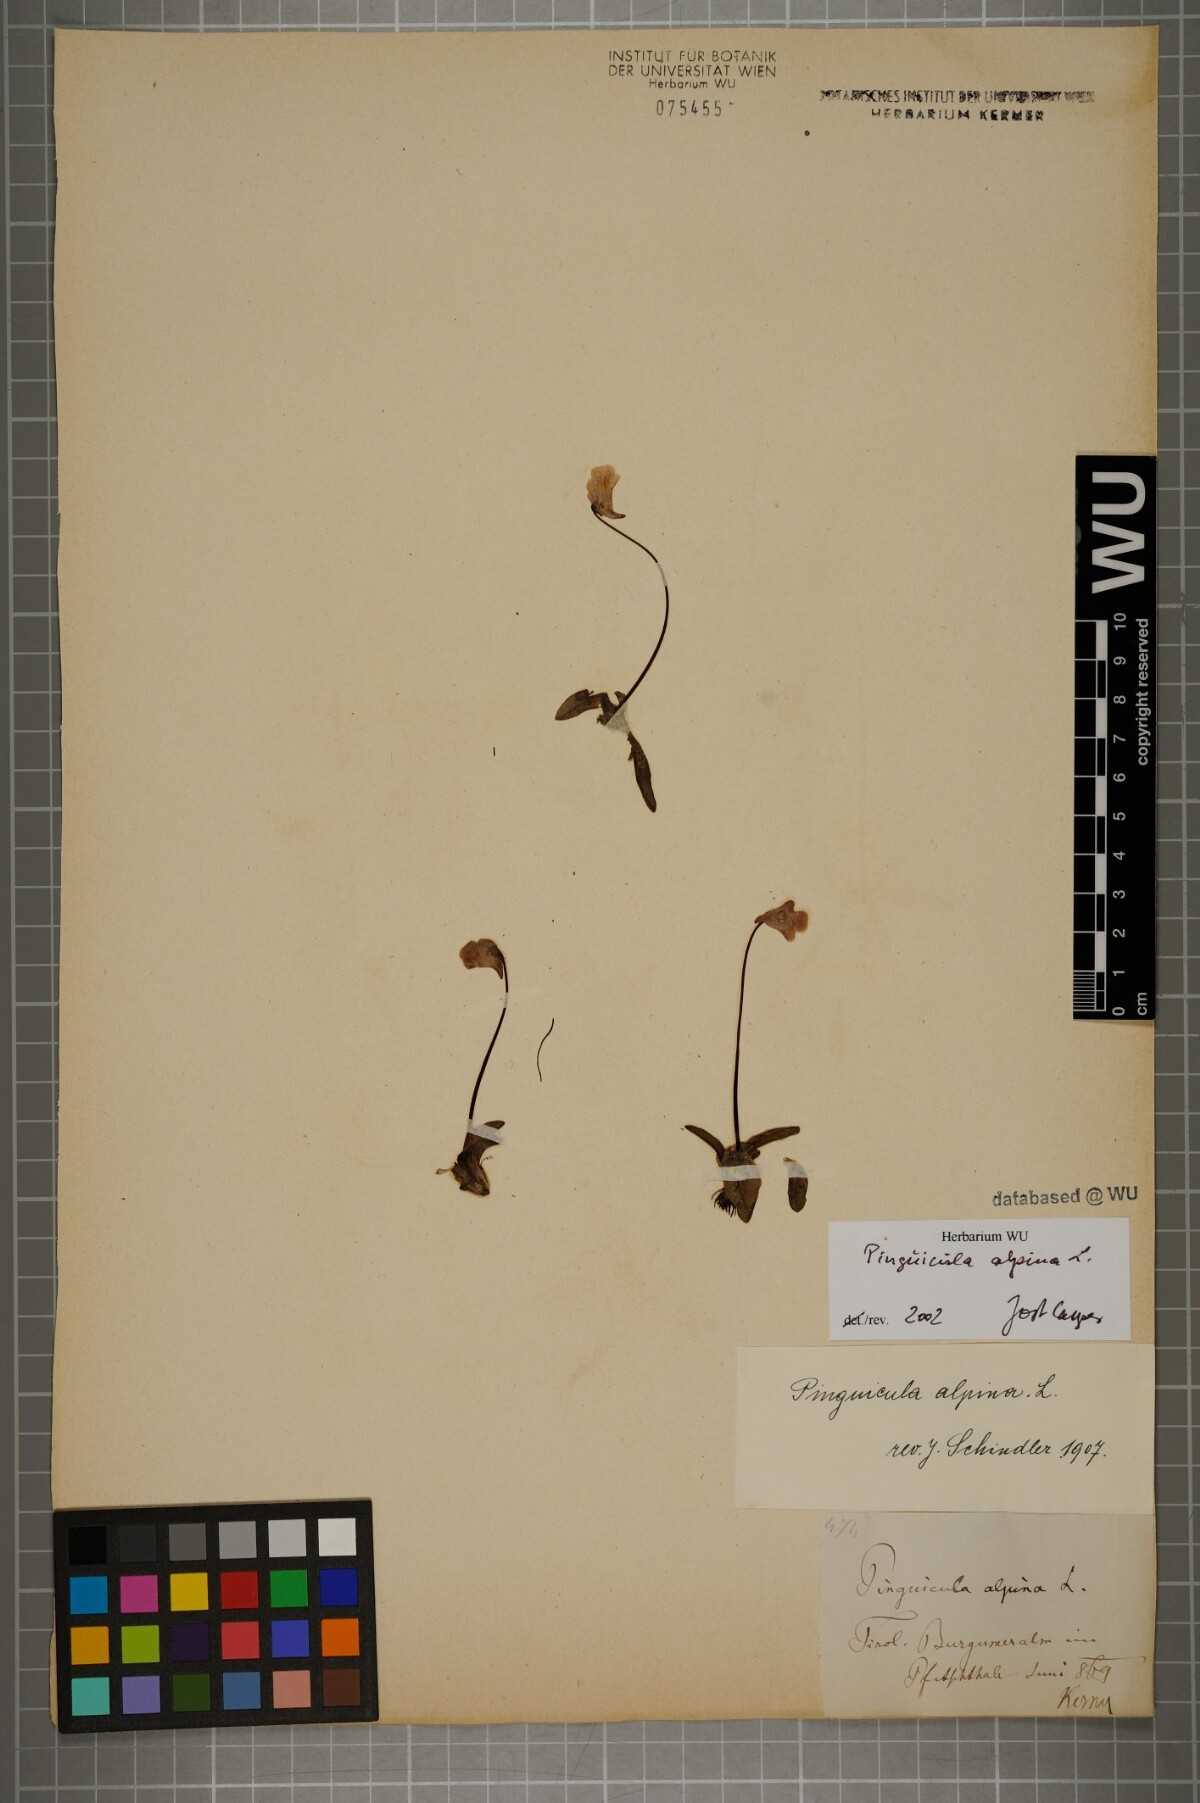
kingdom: Plantae
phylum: Tracheophyta
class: Magnoliopsida
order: Lamiales
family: Lentibulariaceae
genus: Pinguicula
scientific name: Pinguicula alpina
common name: Alpine butterwort
